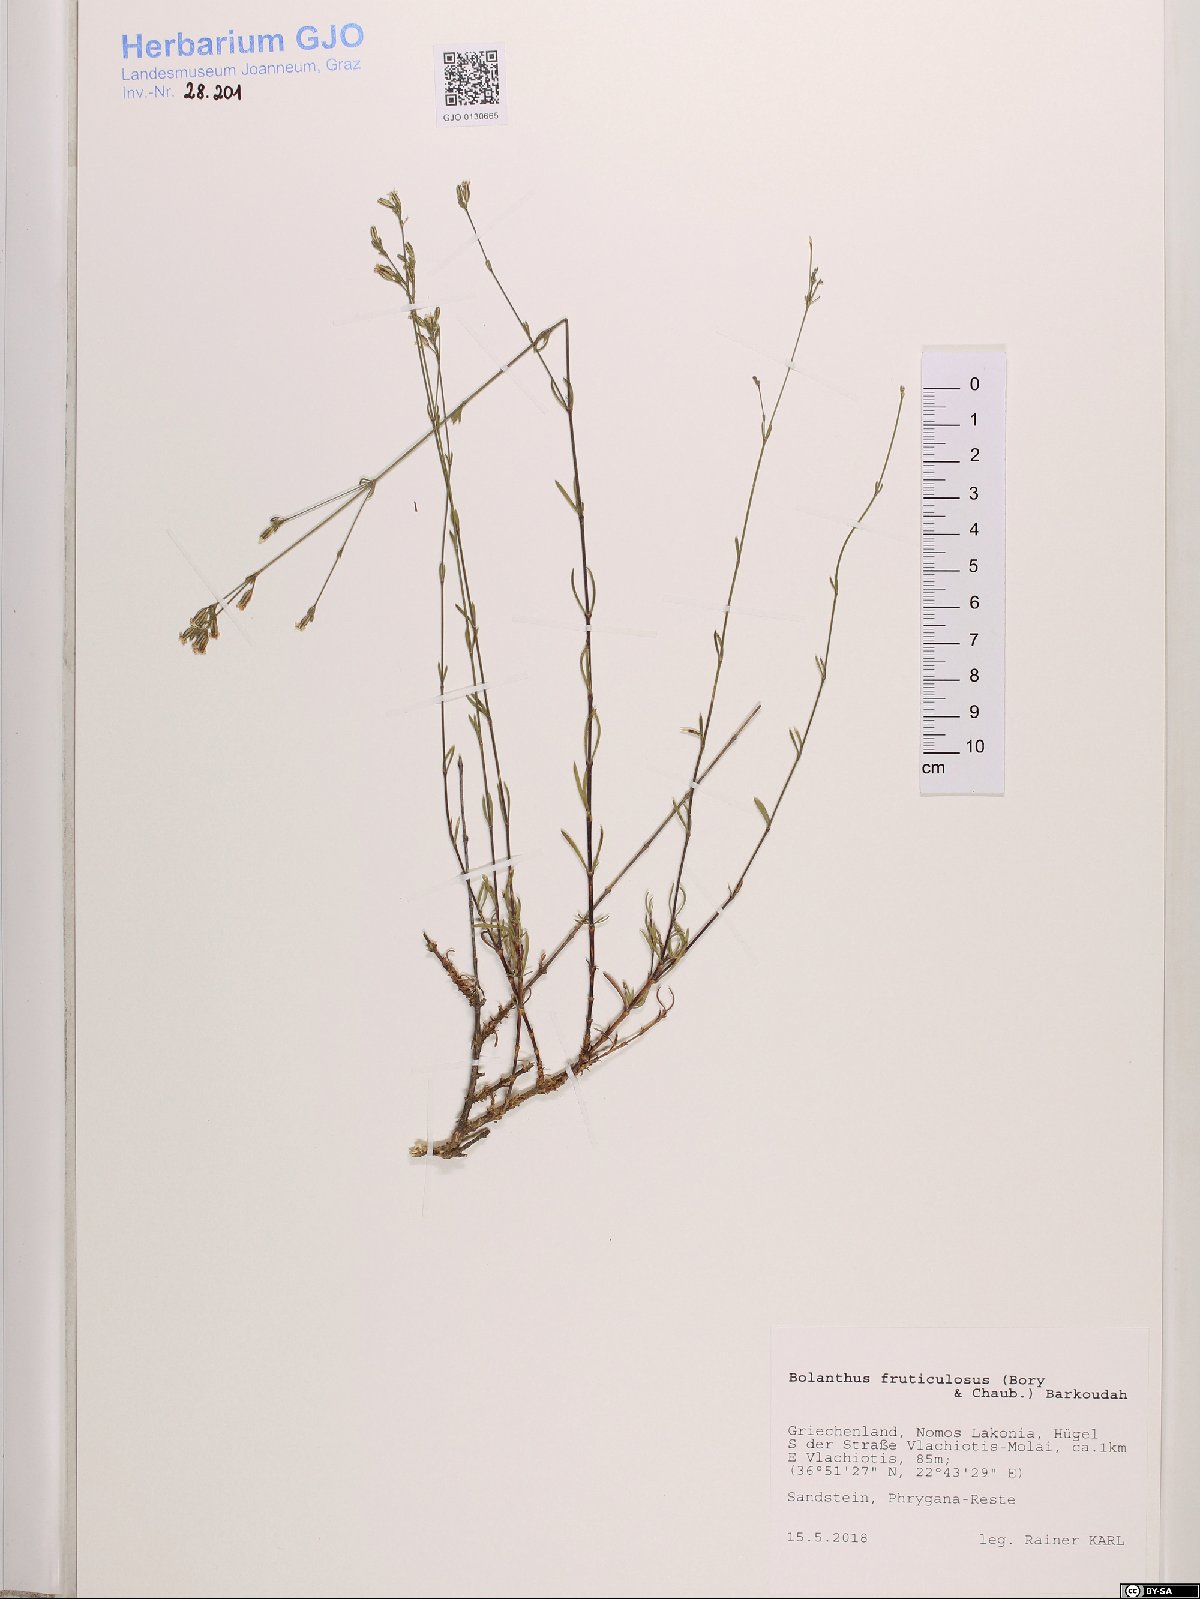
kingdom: Plantae
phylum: Tracheophyta
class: Magnoliopsida
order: Caryophyllales
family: Caryophyllaceae
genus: Graecobolanthus
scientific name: Graecobolanthus fruticulosus
